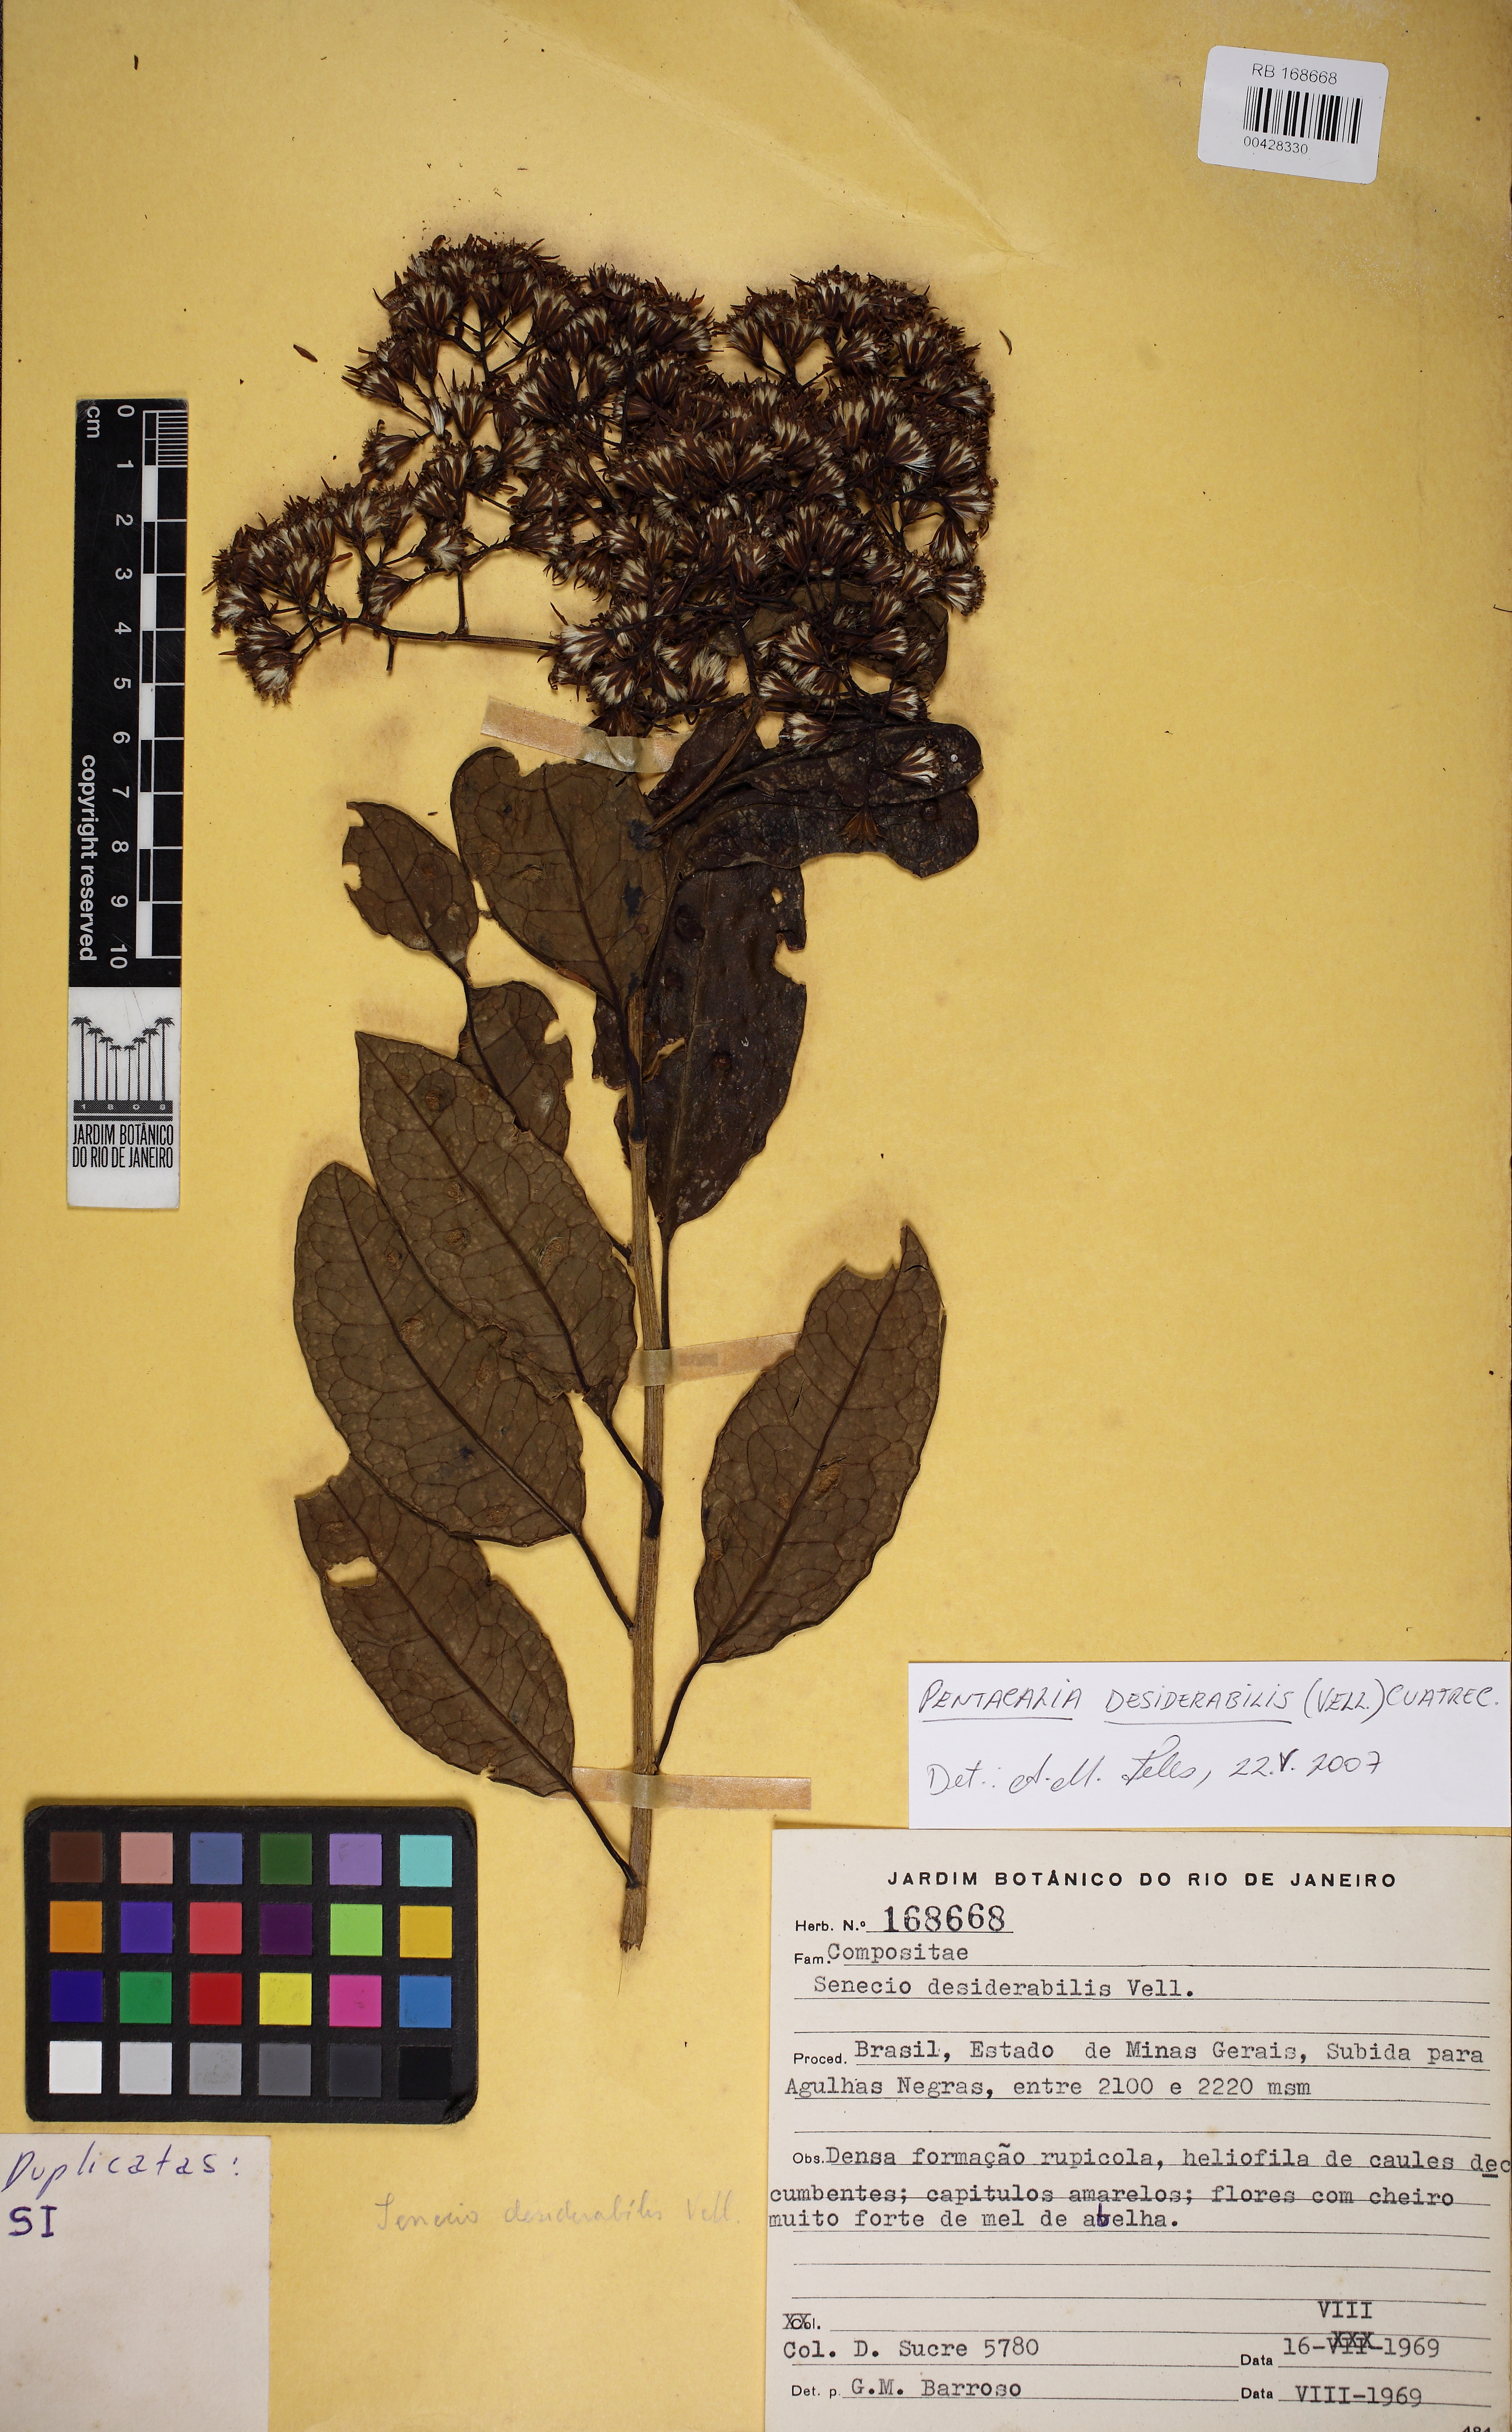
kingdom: Plantae
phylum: Tracheophyta
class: Magnoliopsida
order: Asterales
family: Asteraceae
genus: Pentacalia
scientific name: Pentacalia desiderabilis
